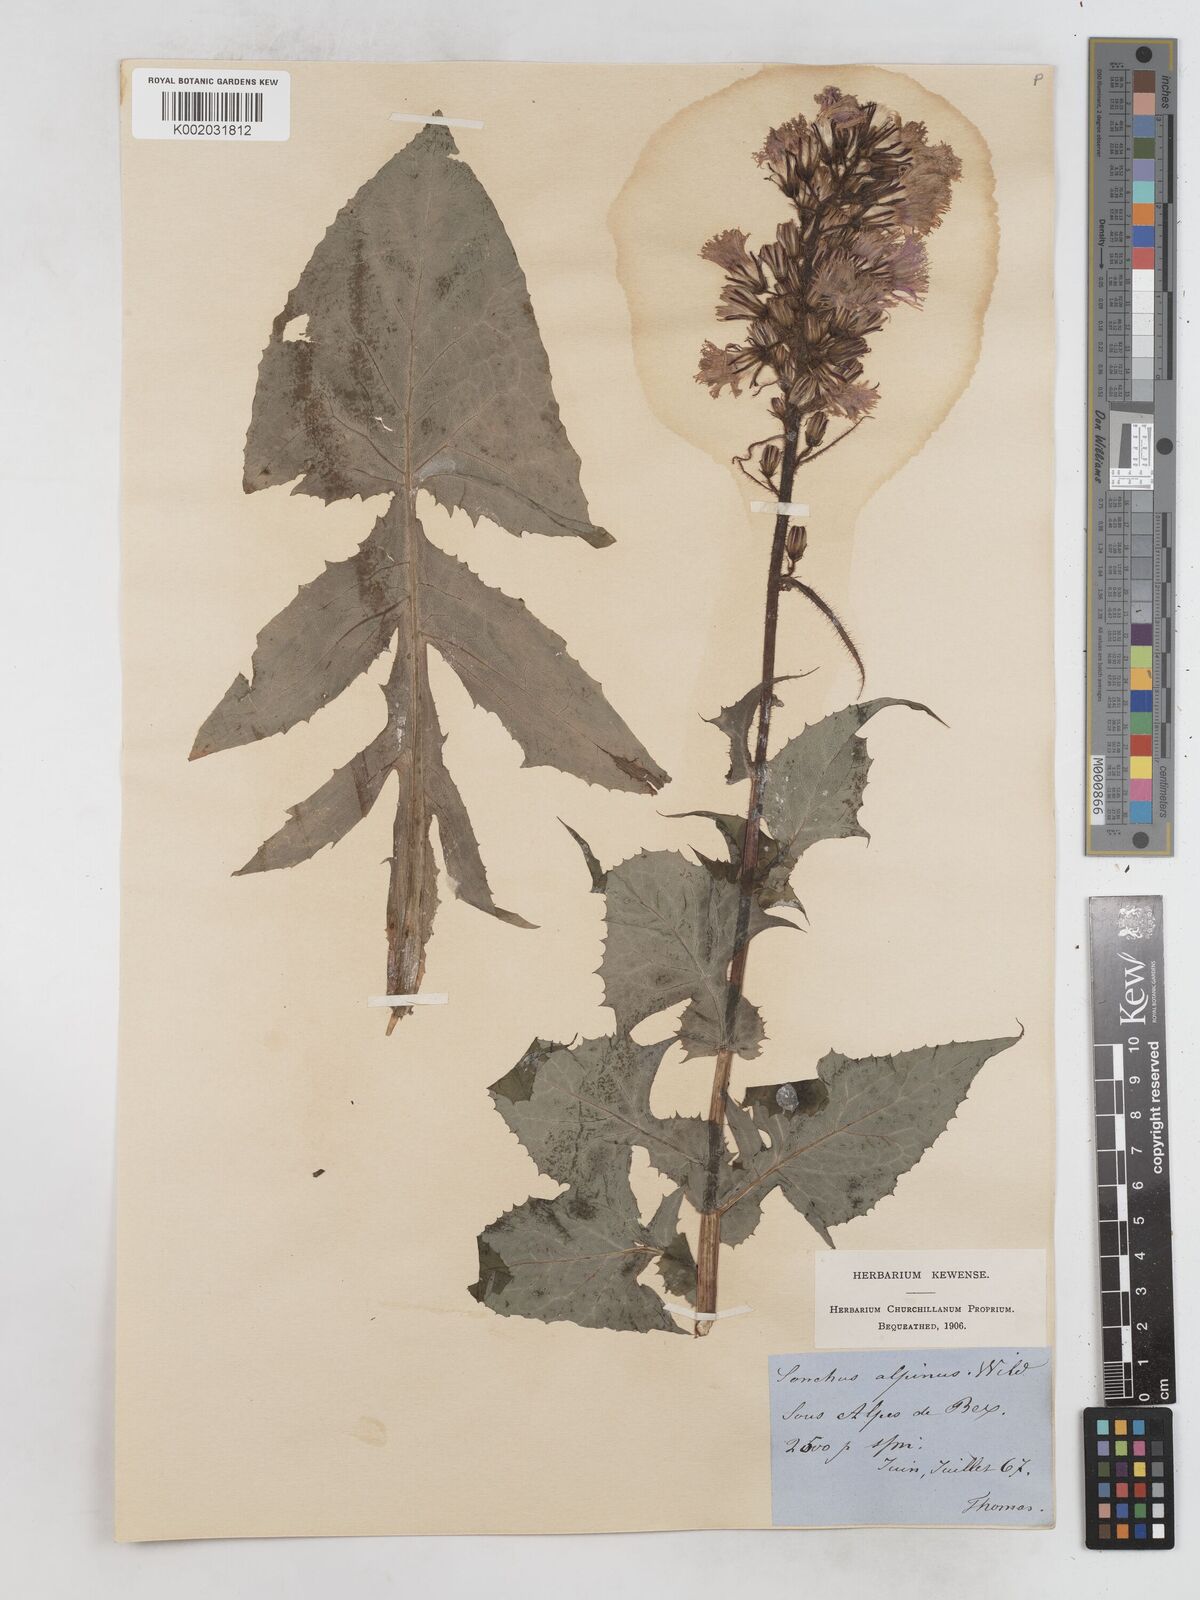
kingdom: Plantae
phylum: Tracheophyta
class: Magnoliopsida
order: Asterales
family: Asteraceae
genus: Cicerbita
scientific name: Cicerbita alpina
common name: Alpine blue-sow-thistle
